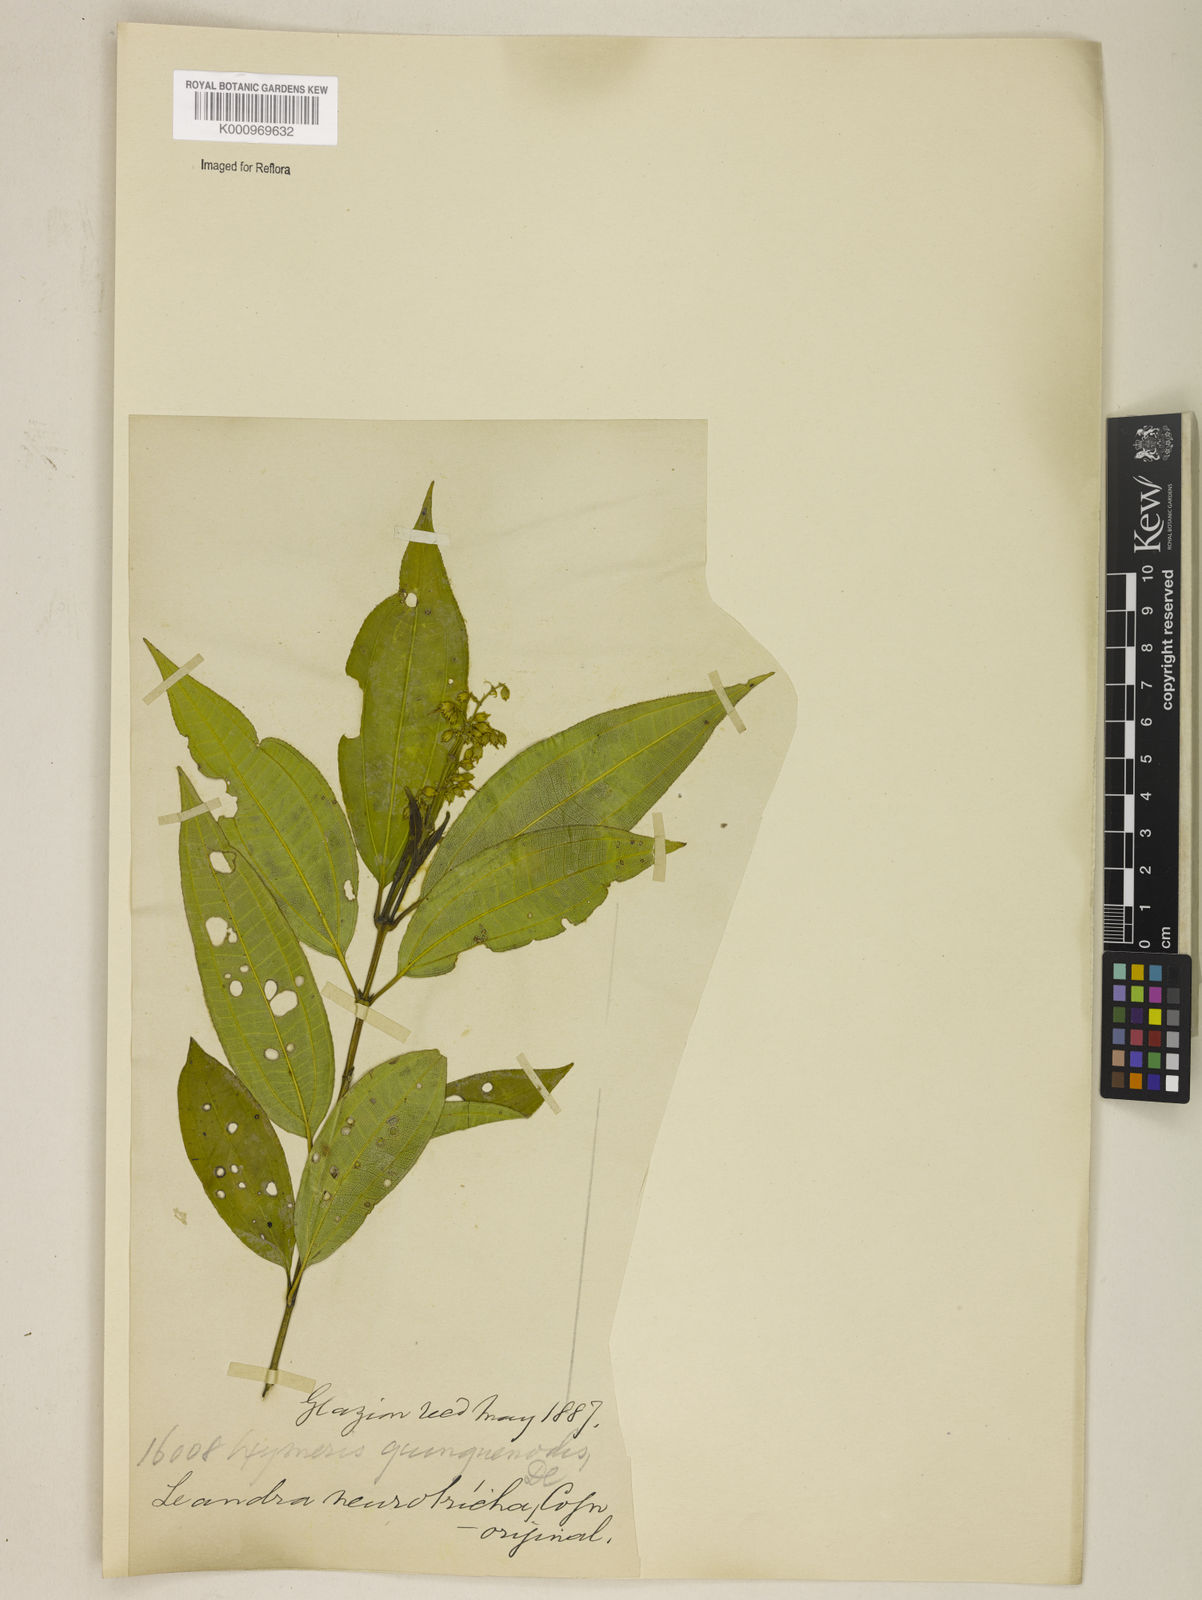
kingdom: Plantae
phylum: Tracheophyta
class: Magnoliopsida
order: Myrtales
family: Melastomataceae
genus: Miconia
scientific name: Miconia leaneurotricha
